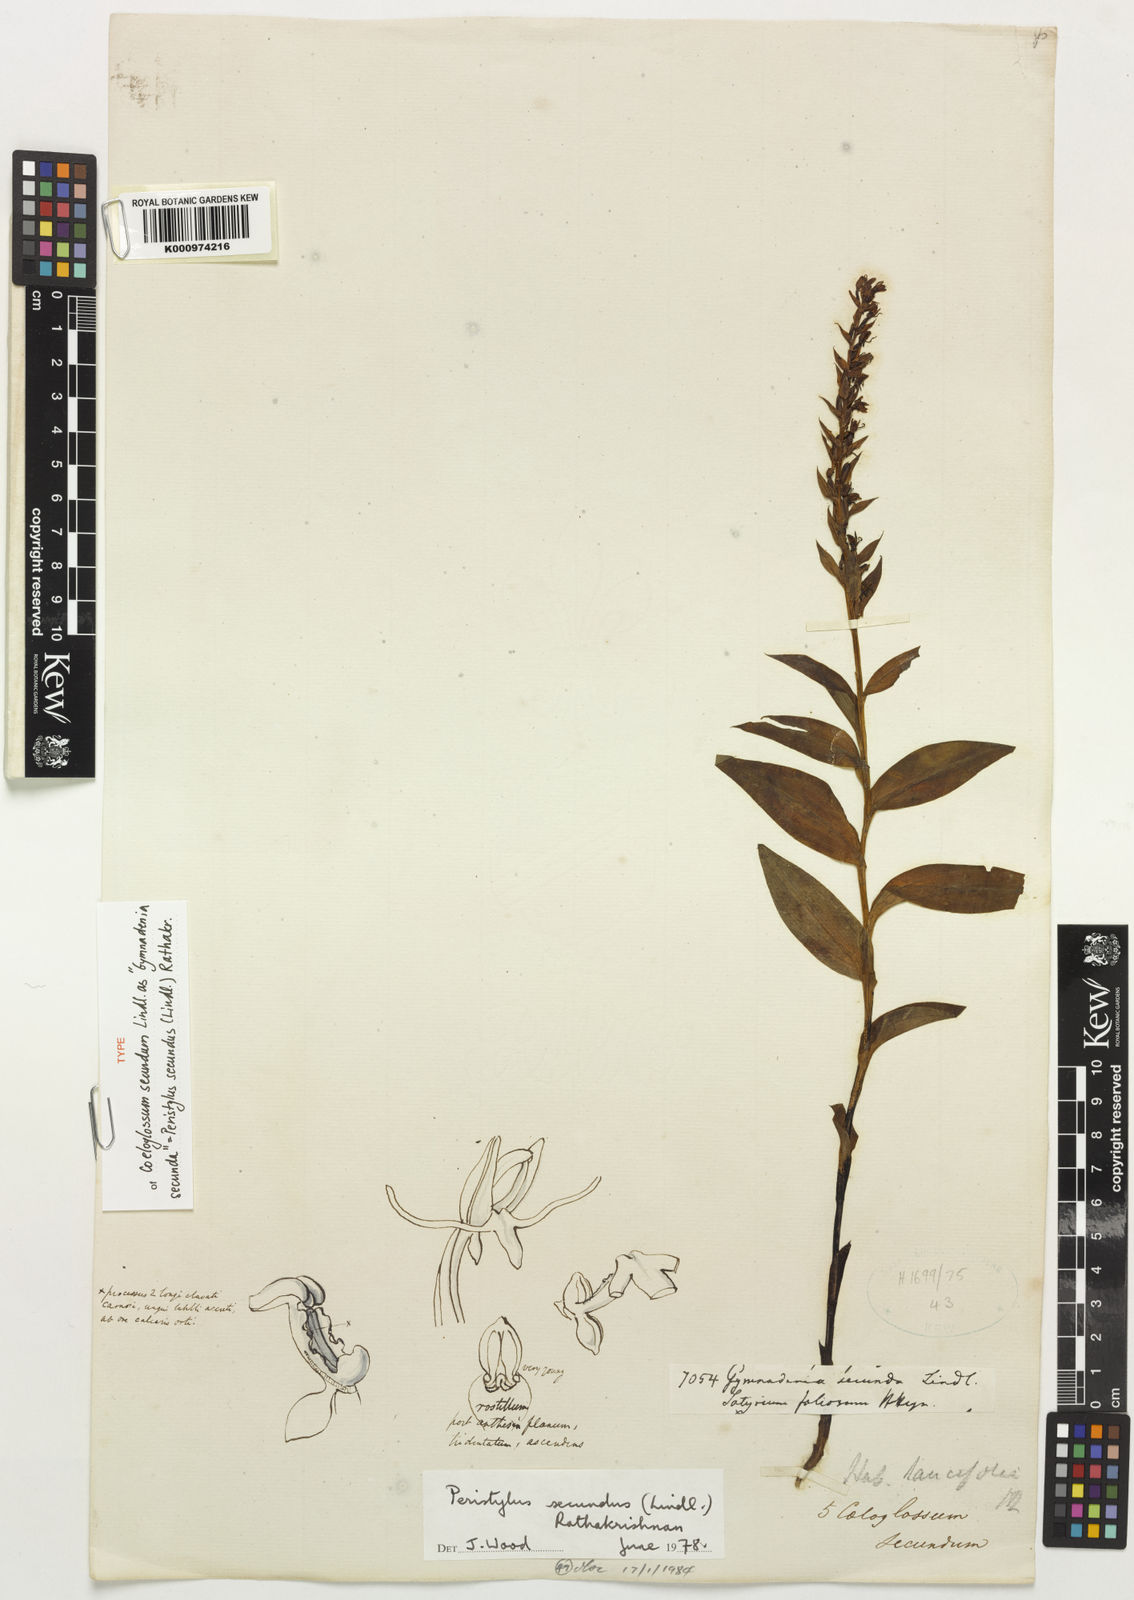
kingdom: Plantae
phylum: Tracheophyta
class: Liliopsida
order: Asparagales
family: Orchidaceae
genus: Peristylus
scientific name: Peristylus secundus
